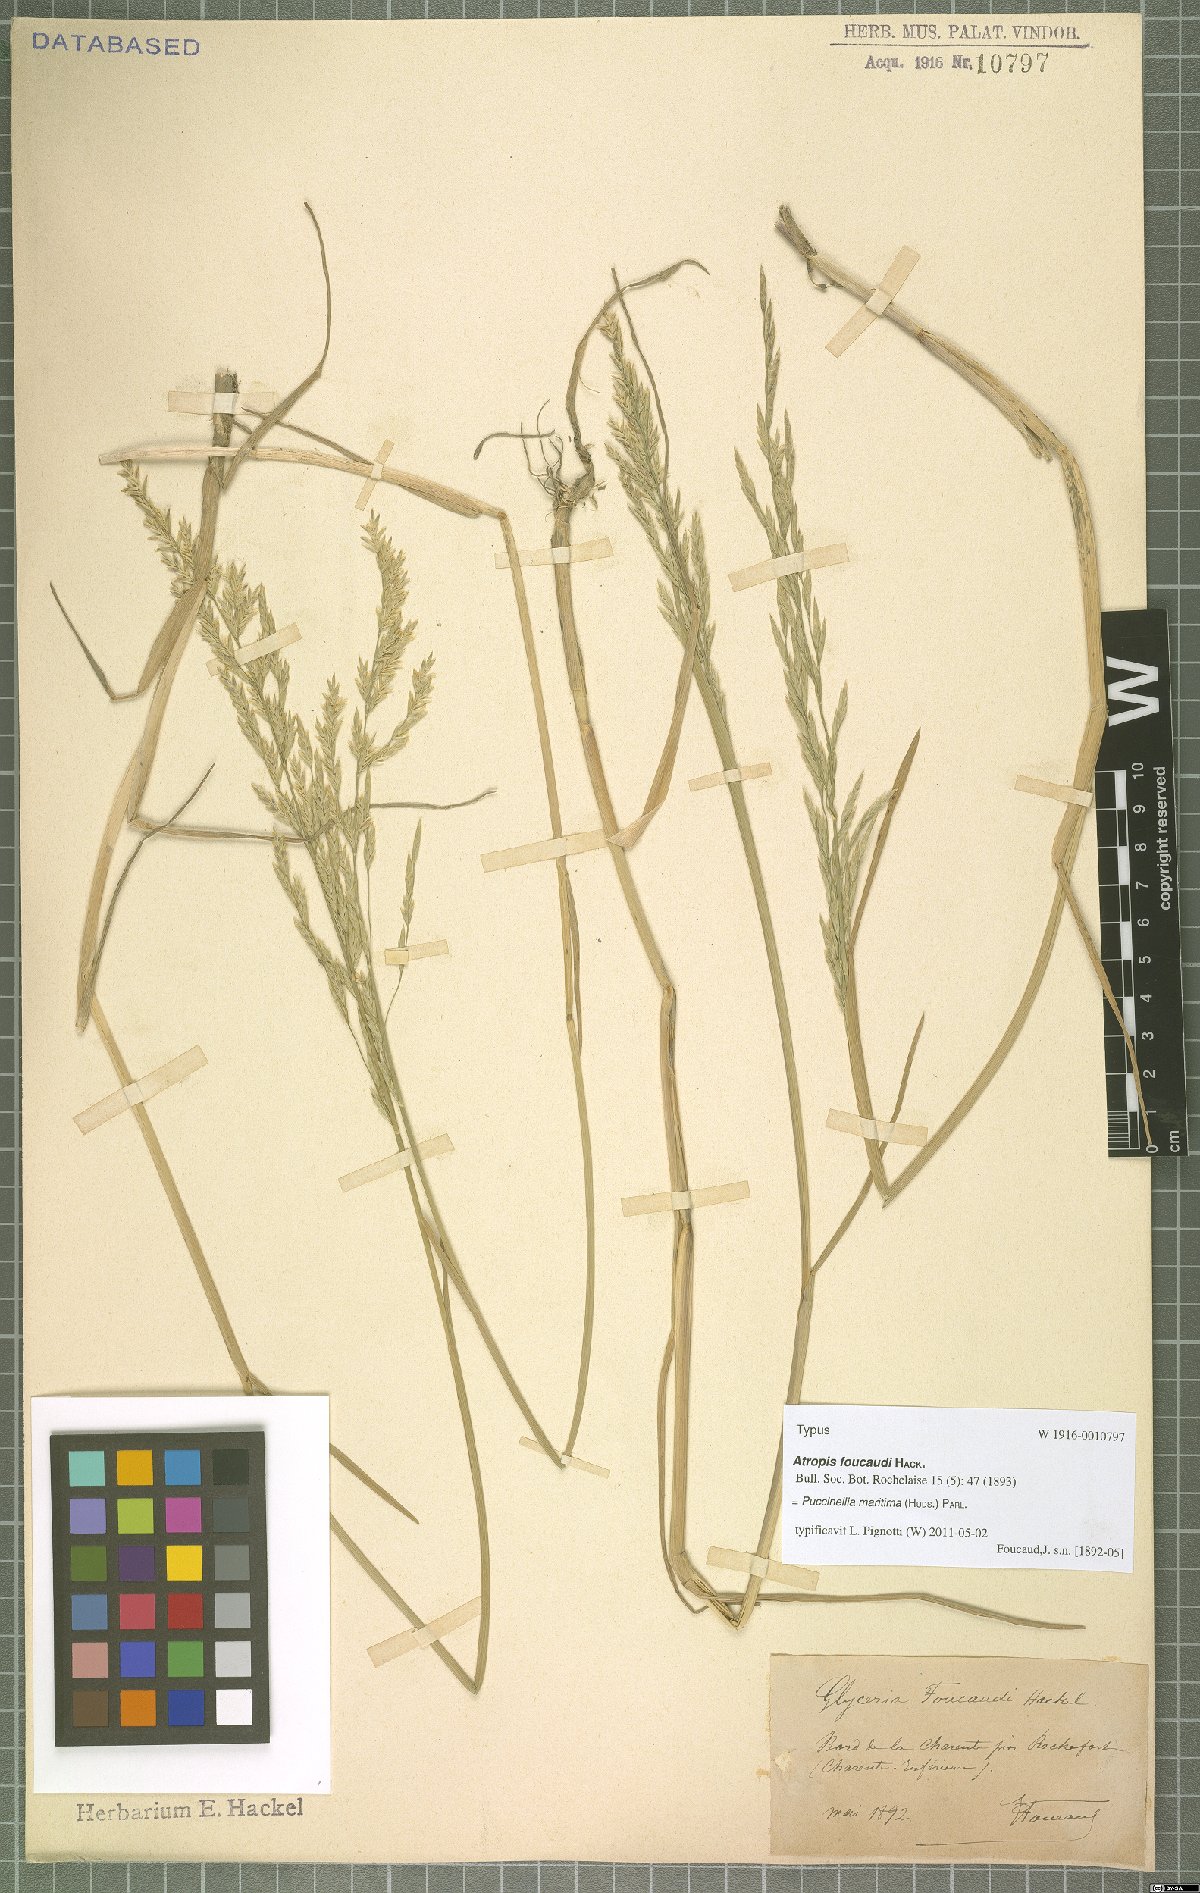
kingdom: Plantae
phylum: Tracheophyta
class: Liliopsida
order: Poales
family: Poaceae
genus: Puccinellia
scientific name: Puccinellia maritima
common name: Common saltmarsh grass
